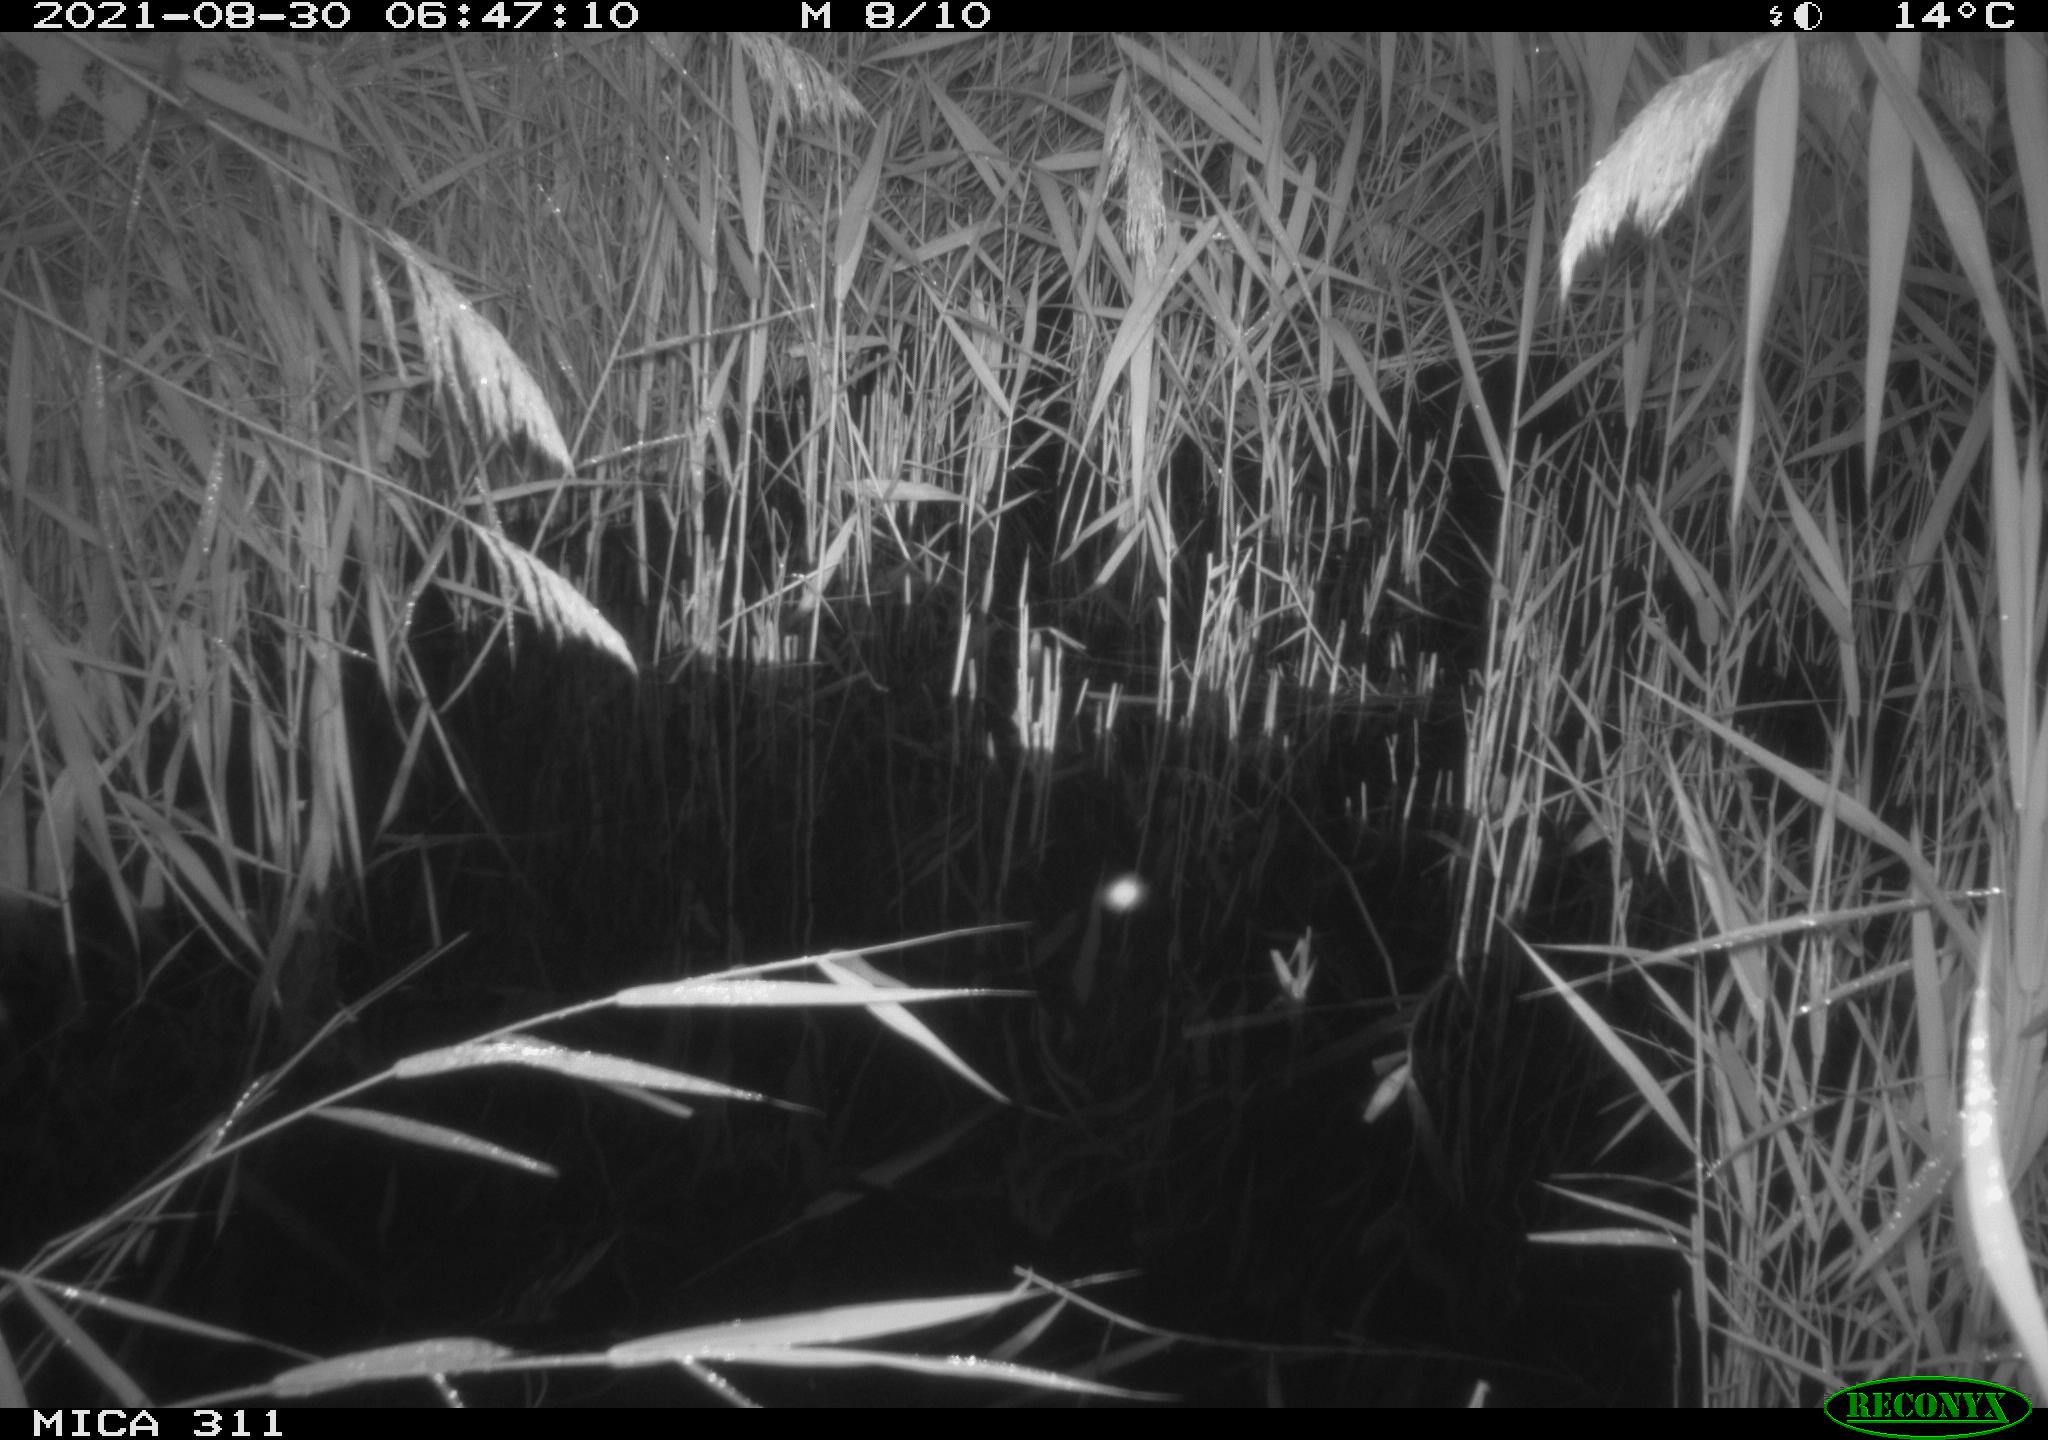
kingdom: Animalia
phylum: Chordata
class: Mammalia
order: Rodentia
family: Muridae
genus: Rattus
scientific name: Rattus norvegicus
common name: Brown rat
